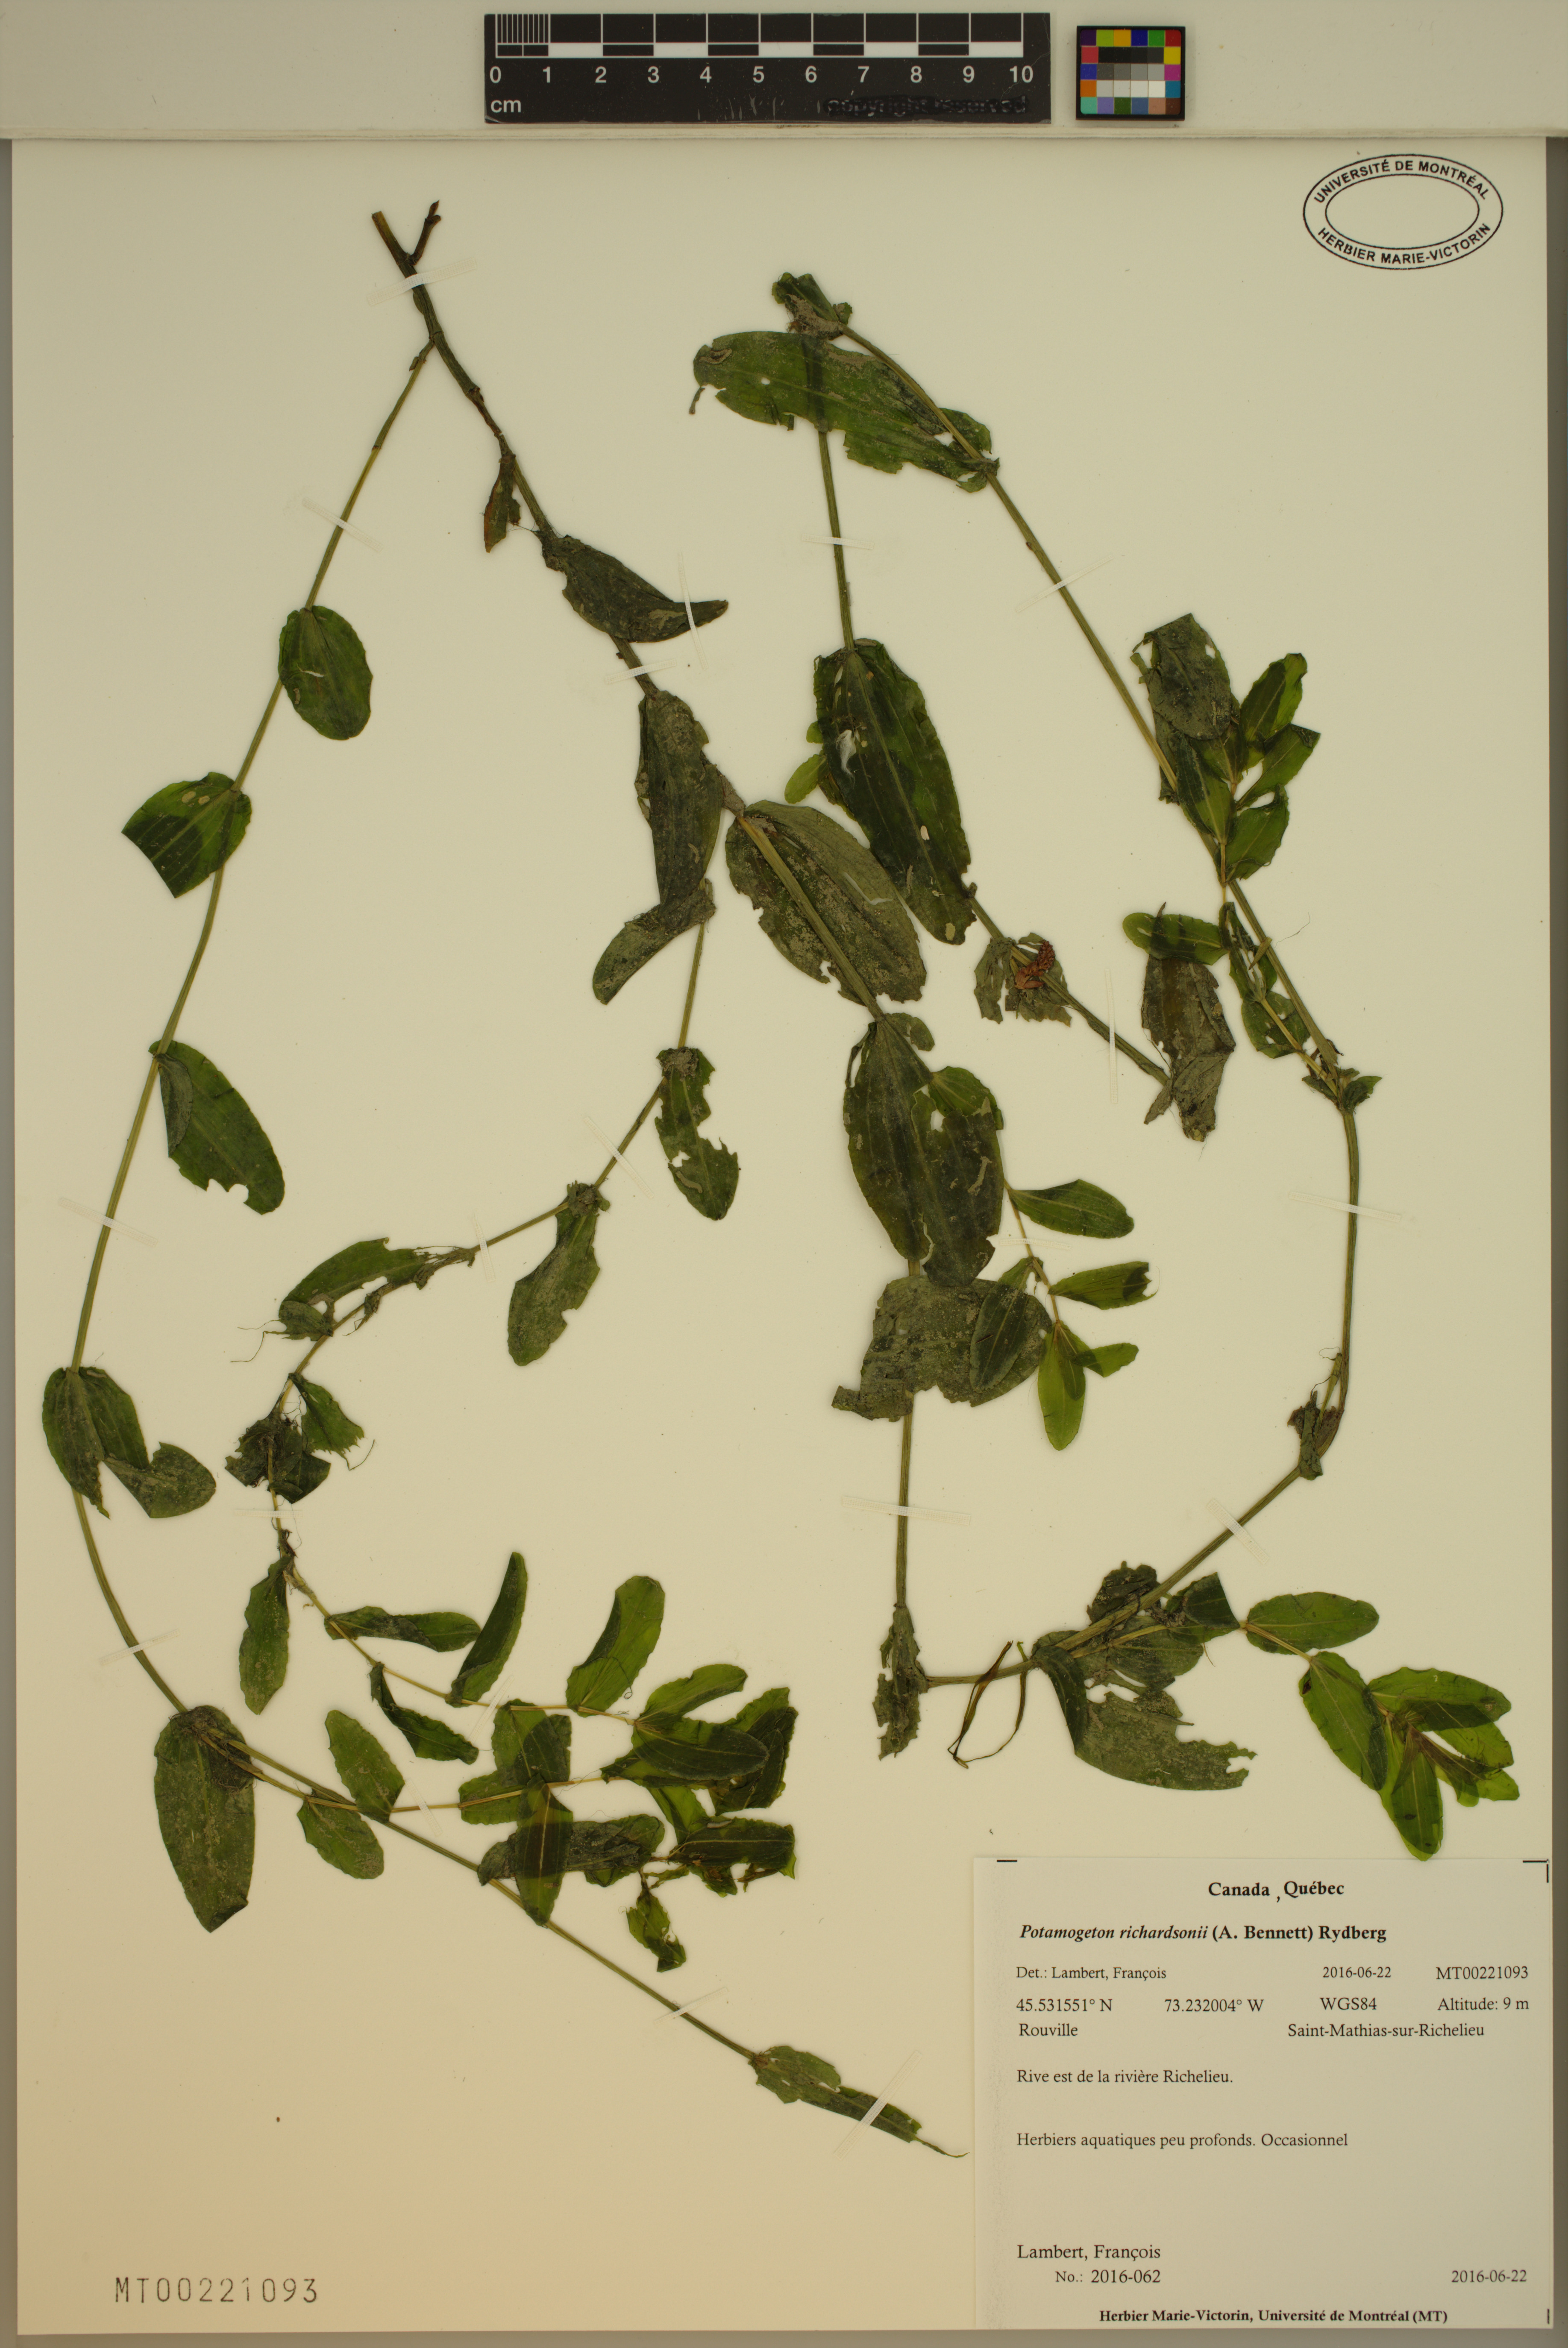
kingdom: Plantae
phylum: Tracheophyta
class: Liliopsida
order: Alismatales
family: Potamogetonaceae
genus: Potamogeton
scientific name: Potamogeton richardsonii
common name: Richardson's pondweed
